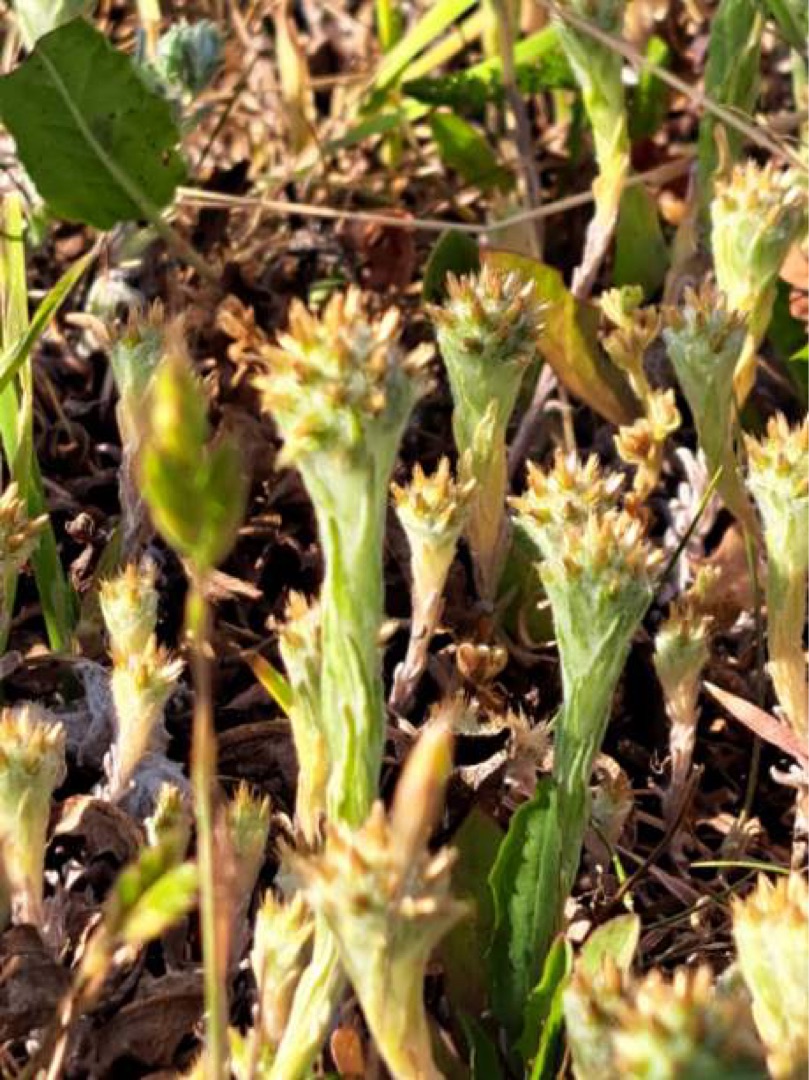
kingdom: Plantae
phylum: Tracheophyta
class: Magnoliopsida
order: Asterales
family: Asteraceae
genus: Filago
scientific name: Filago germanica
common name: Kugle-museurt
